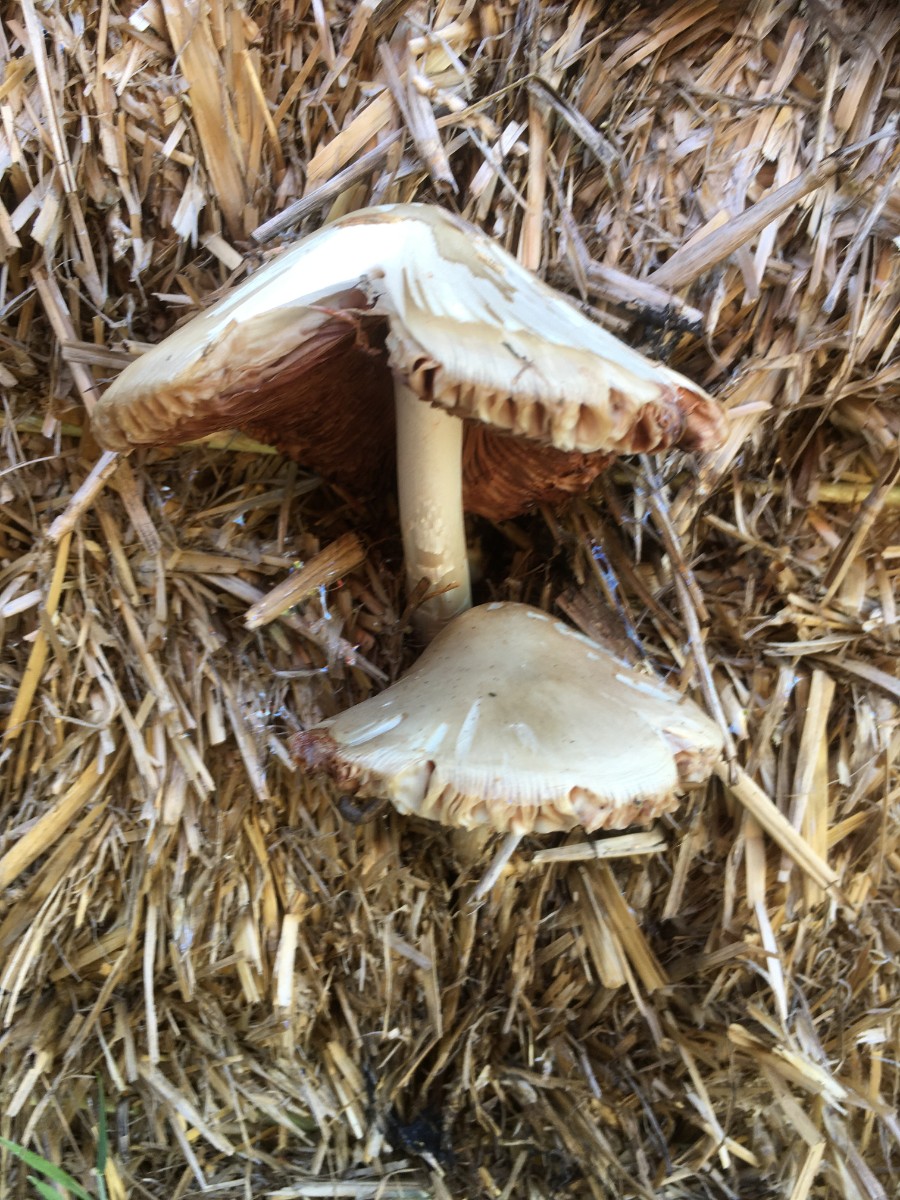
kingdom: Fungi
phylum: Basidiomycota
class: Agaricomycetes
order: Agaricales
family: Pluteaceae
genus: Volvopluteus
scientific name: Volvopluteus gloiocephalus
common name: høj posesvamp
